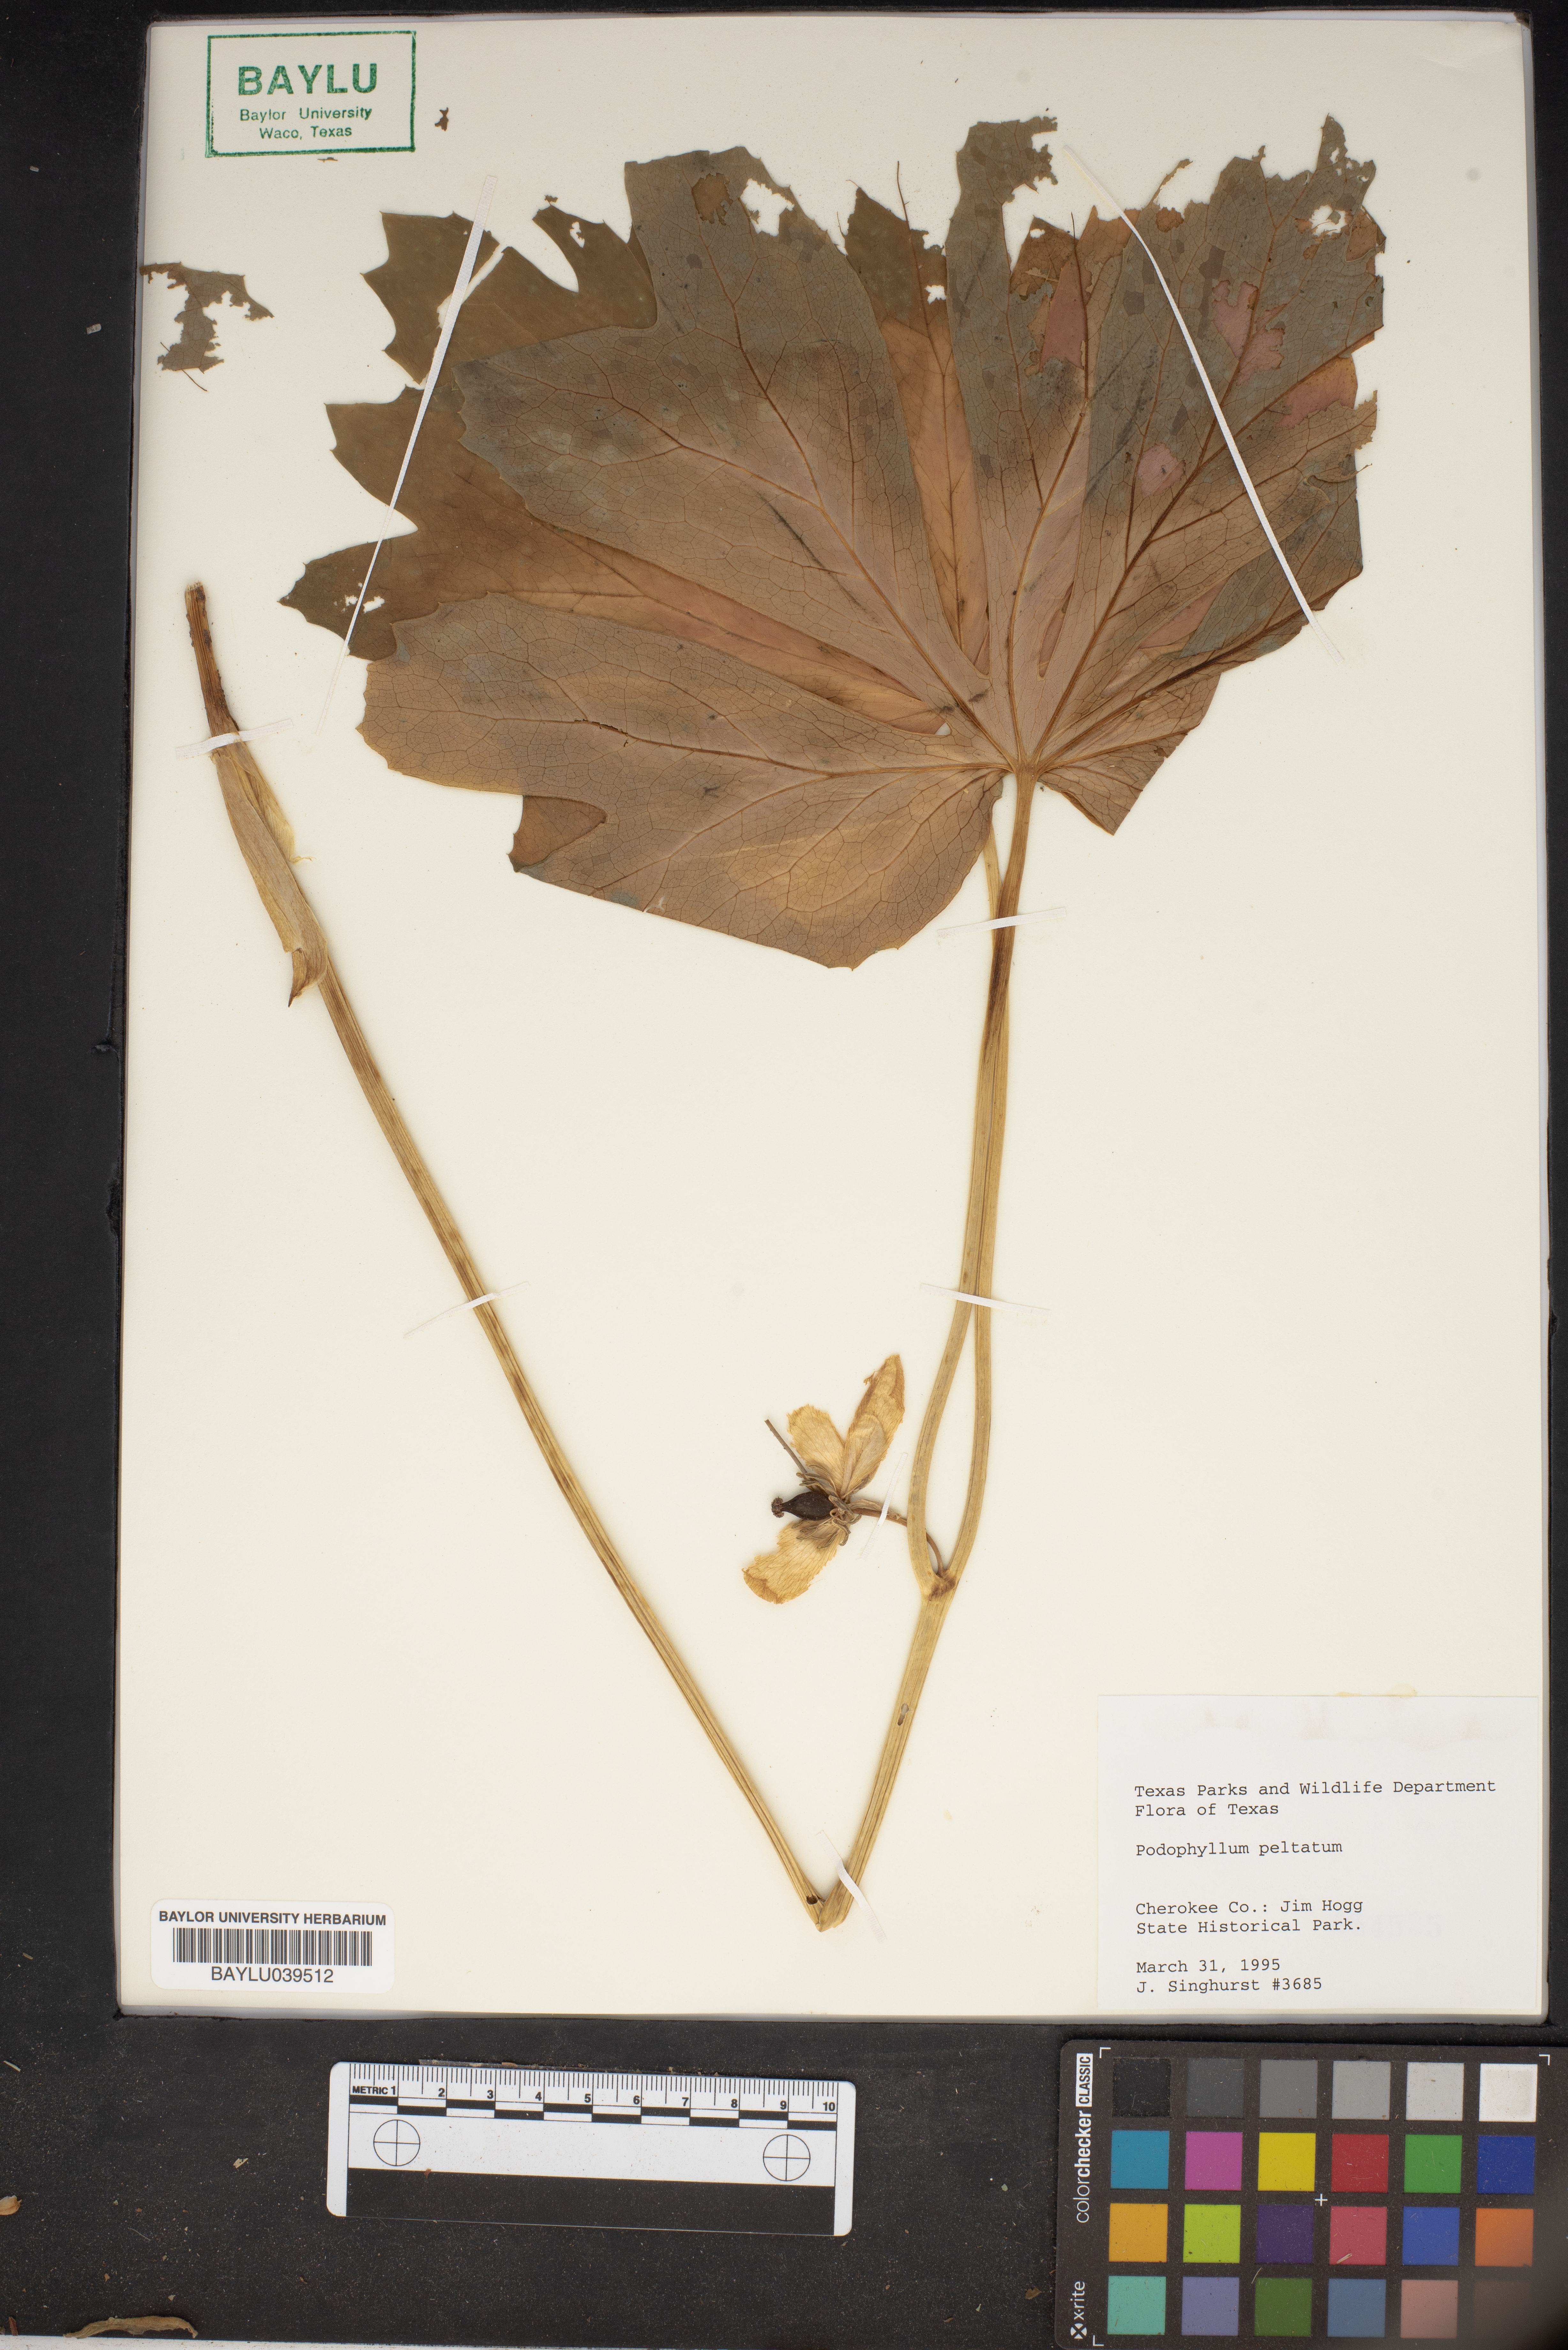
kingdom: Plantae
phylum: Tracheophyta
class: Magnoliopsida
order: Ranunculales
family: Berberidaceae
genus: Podophyllum
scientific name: Podophyllum peltatum
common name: Wild mandrake
